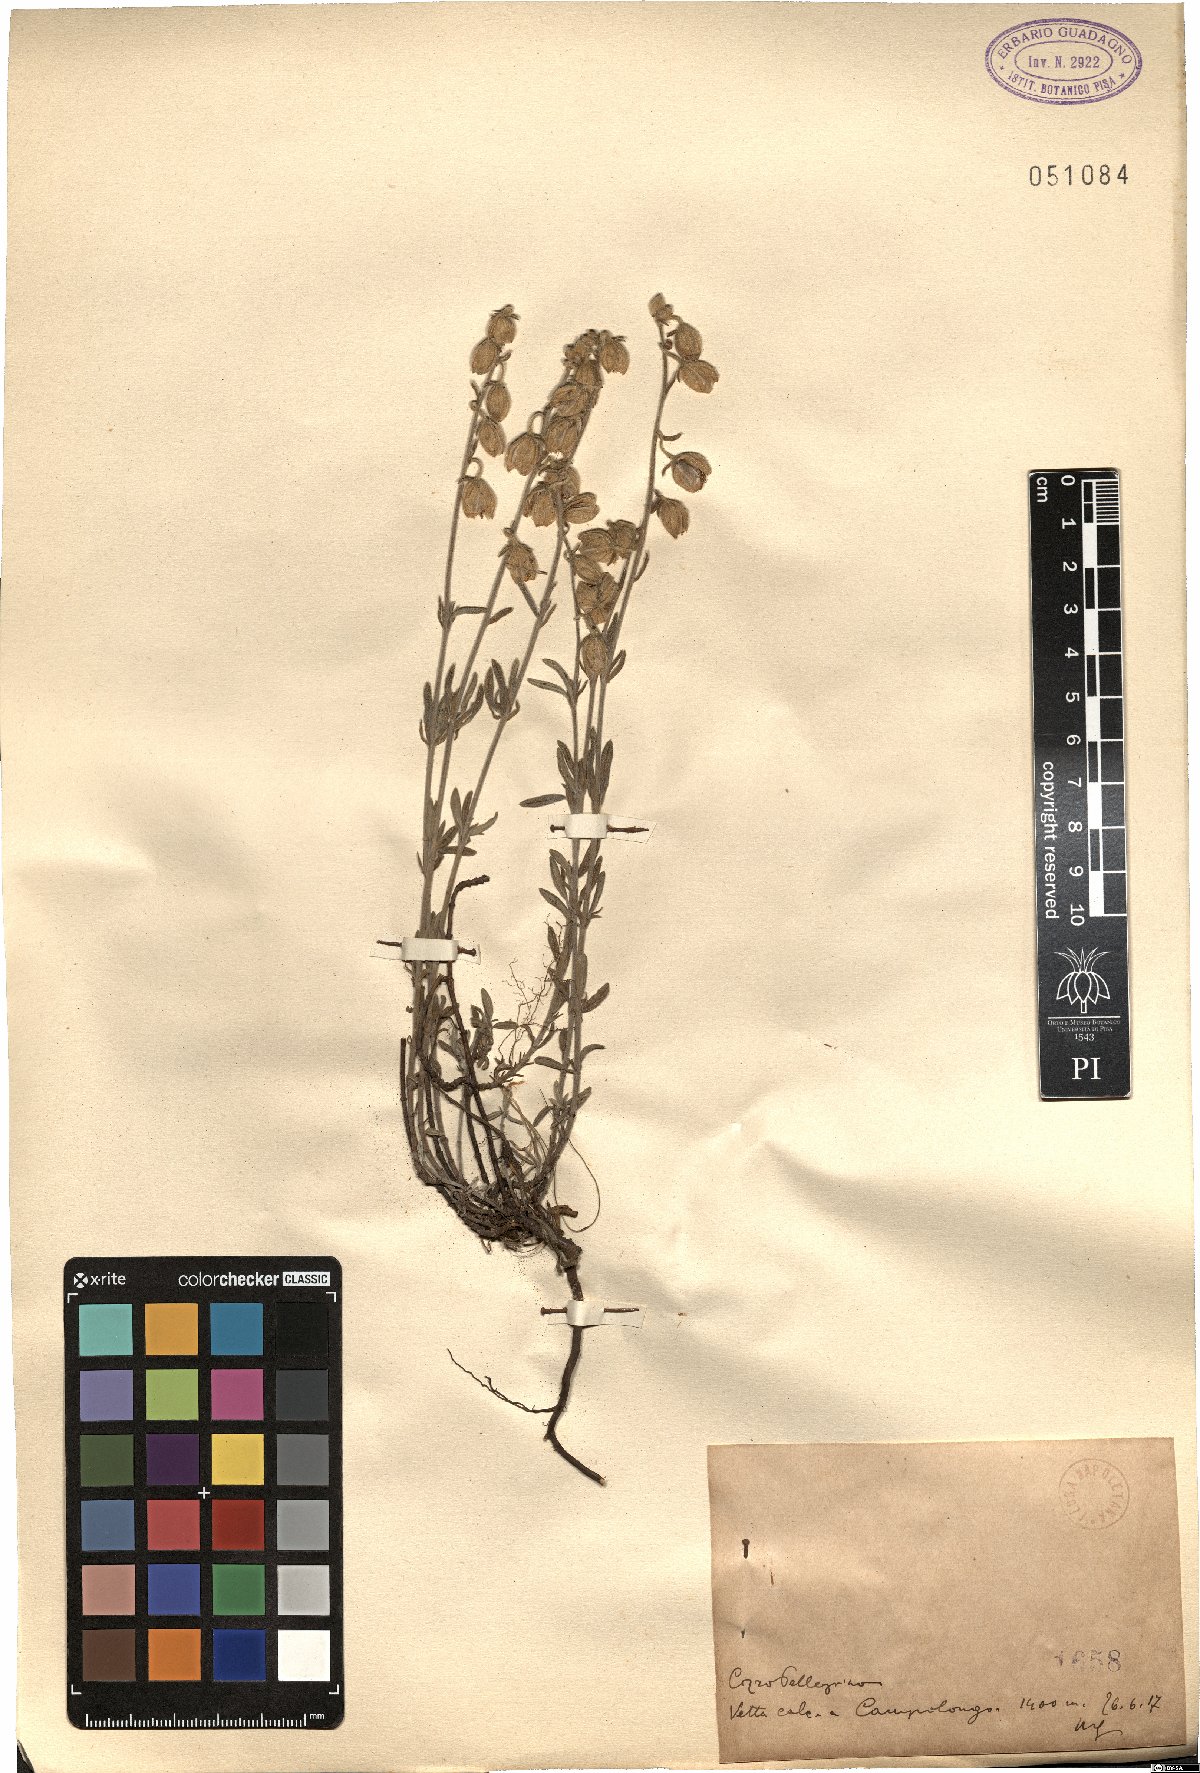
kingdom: Plantae
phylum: Tracheophyta
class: Magnoliopsida
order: Malvales
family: Cistaceae
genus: Helianthemum
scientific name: Helianthemum
